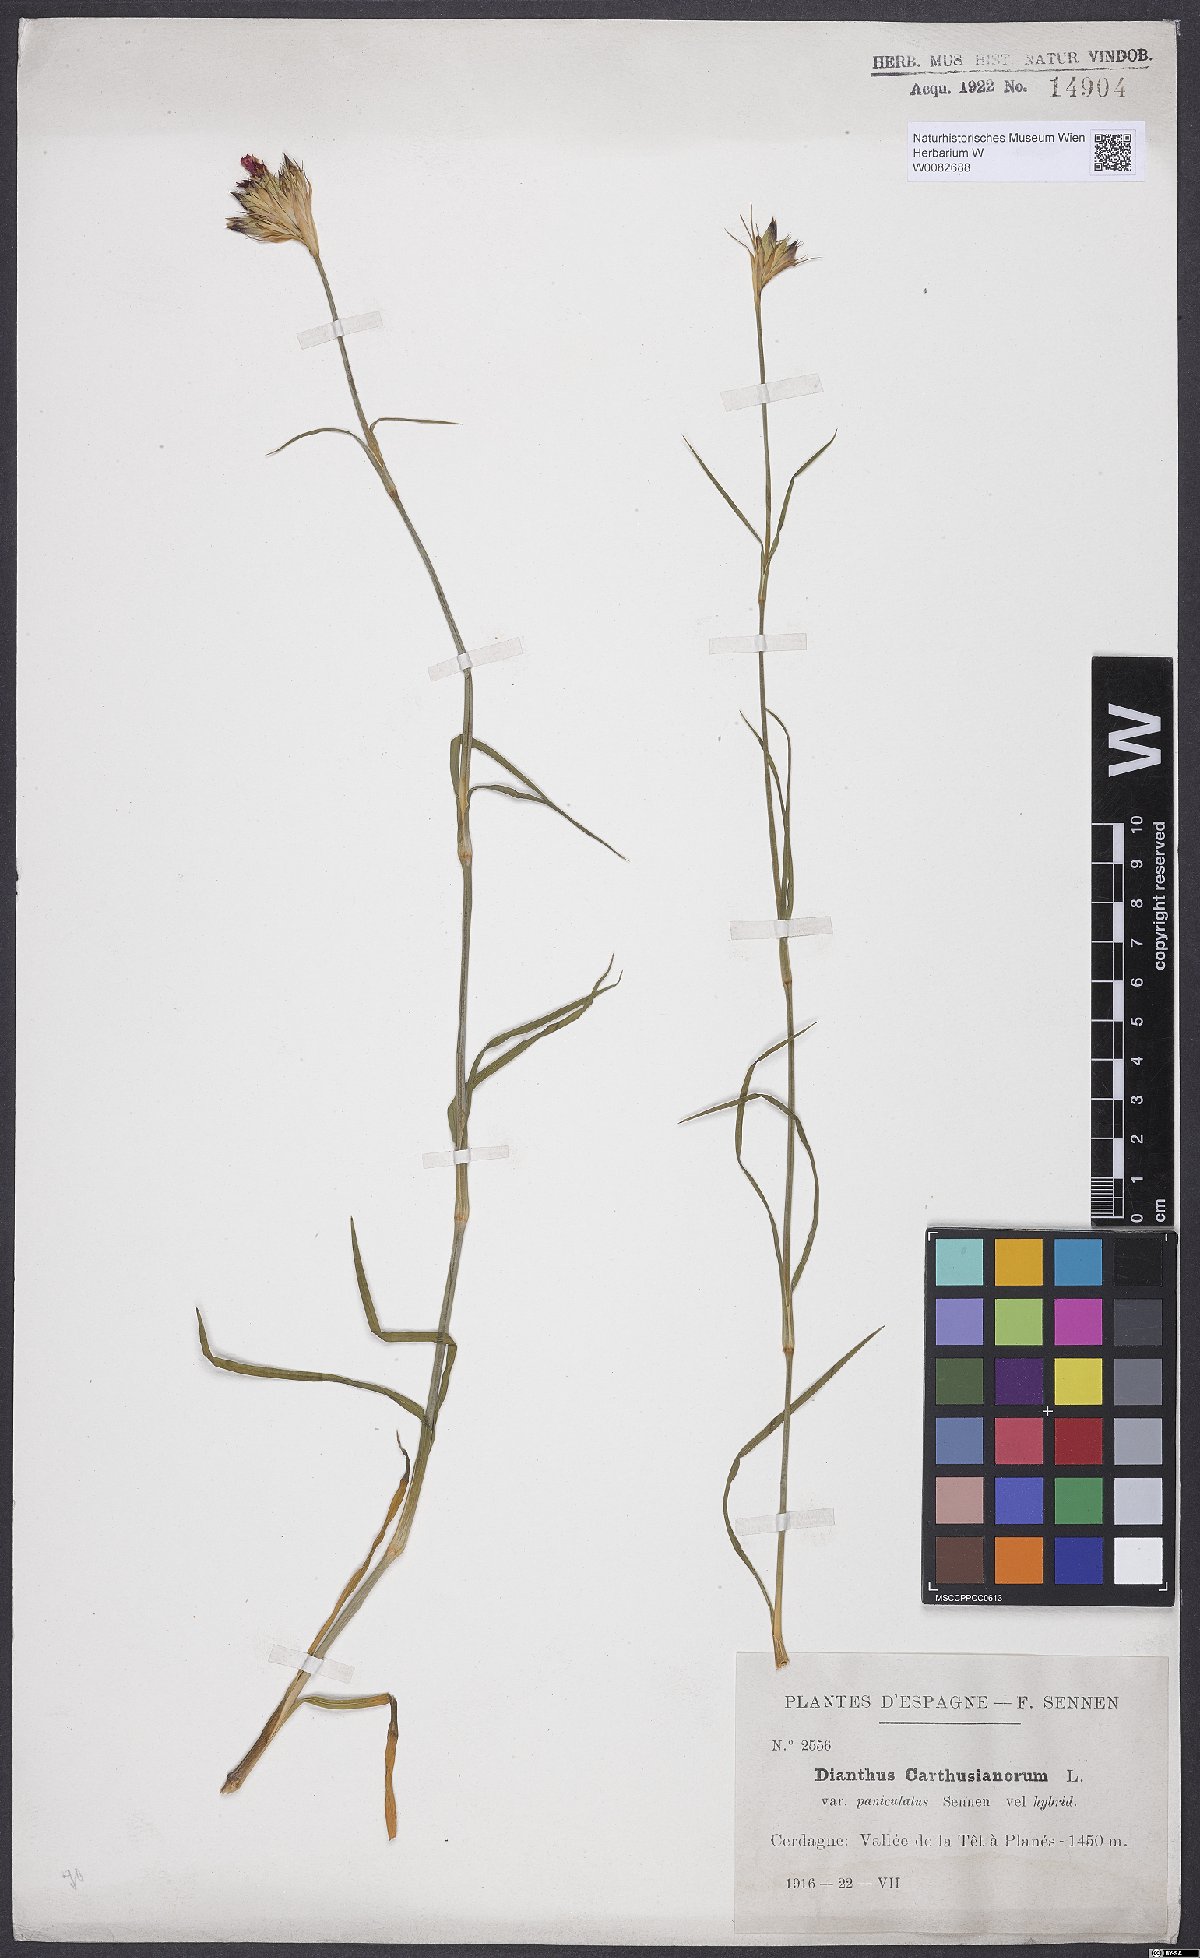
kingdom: Plantae
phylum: Tracheophyta
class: Magnoliopsida
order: Caryophyllales
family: Caryophyllaceae
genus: Dianthus
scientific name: Dianthus carthusianorum
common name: Carthusian pink
